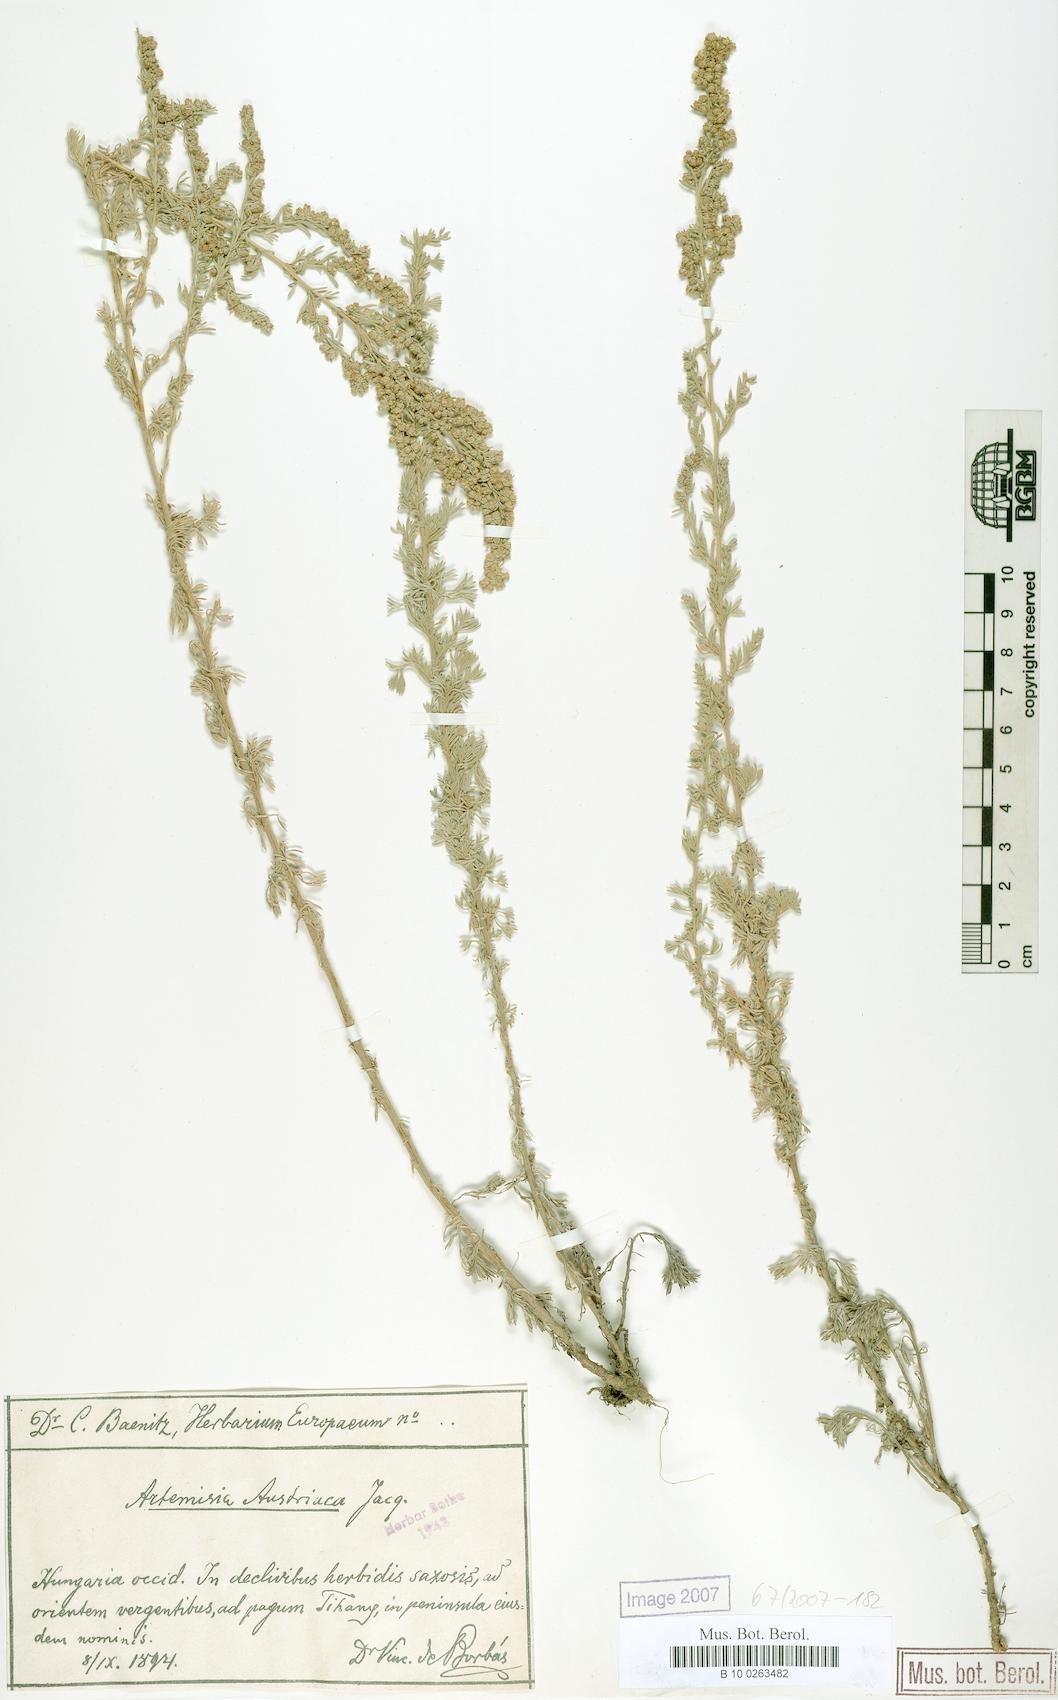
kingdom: Plantae
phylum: Tracheophyta
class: Magnoliopsida
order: Asterales
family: Asteraceae
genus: Artemisia
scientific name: Artemisia austriaca
